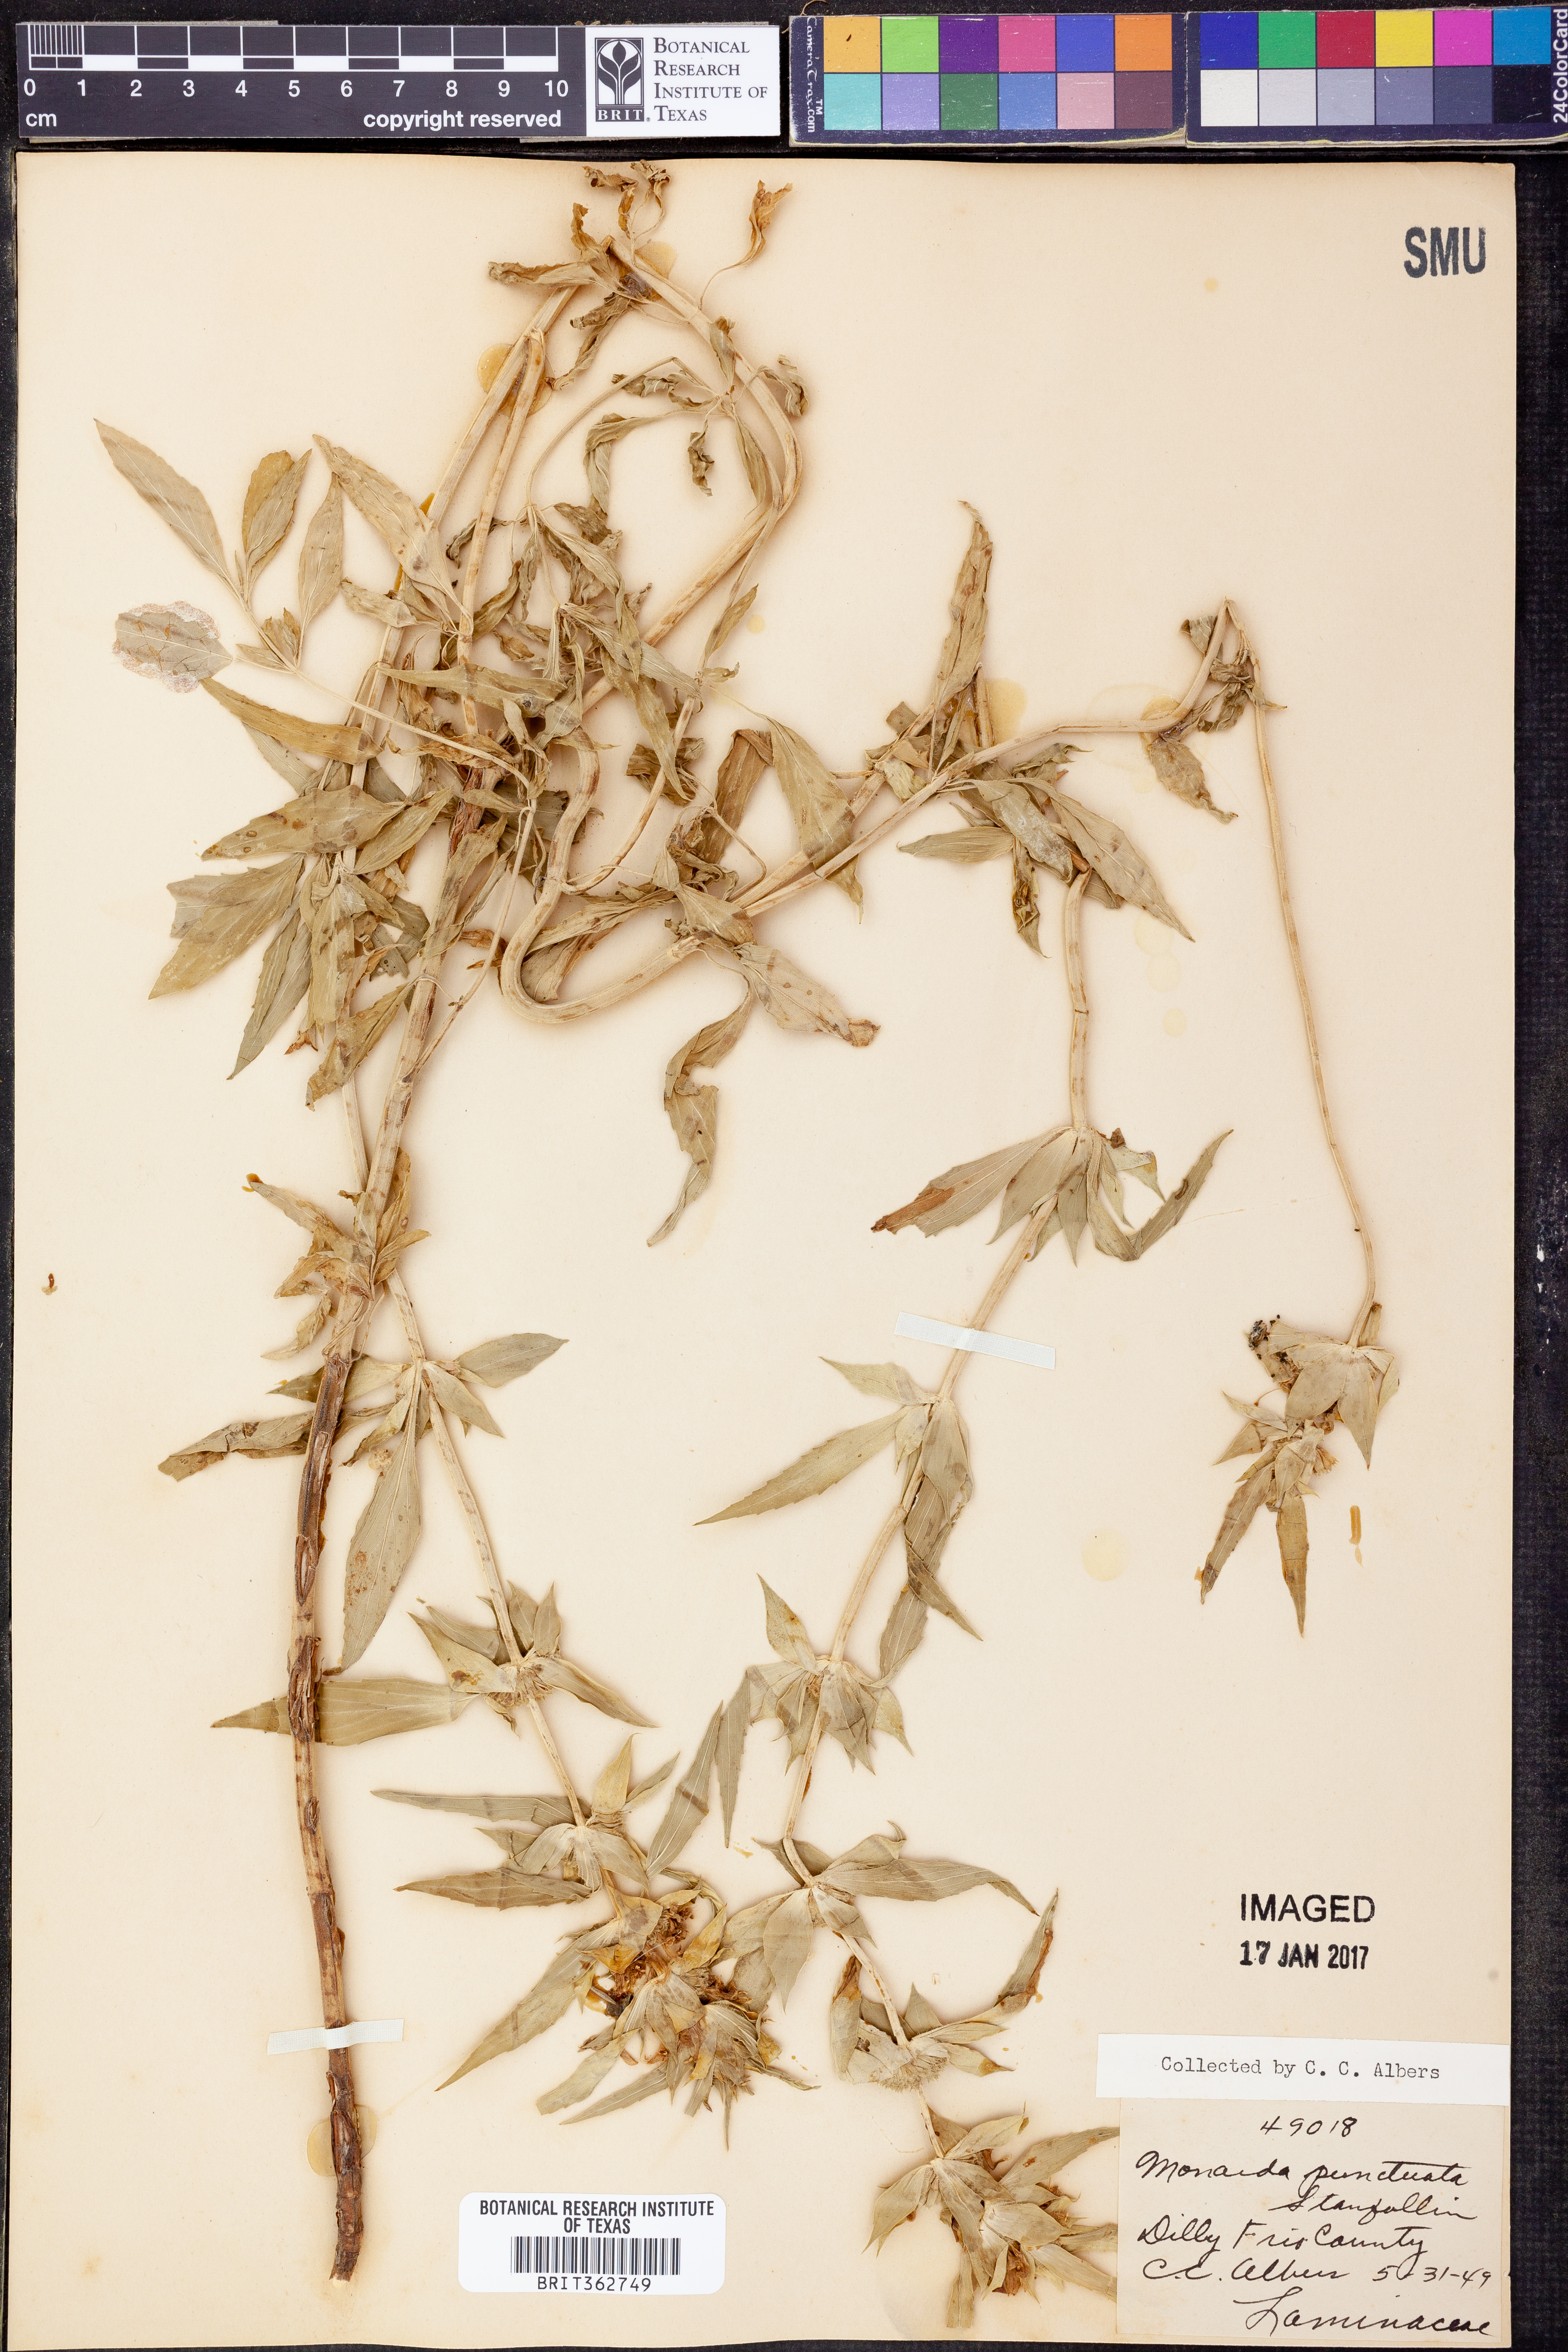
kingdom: Plantae
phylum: Tracheophyta
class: Magnoliopsida
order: Lamiales
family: Lamiaceae
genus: Monarda
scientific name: Monarda punctata
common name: Dotted monarda
